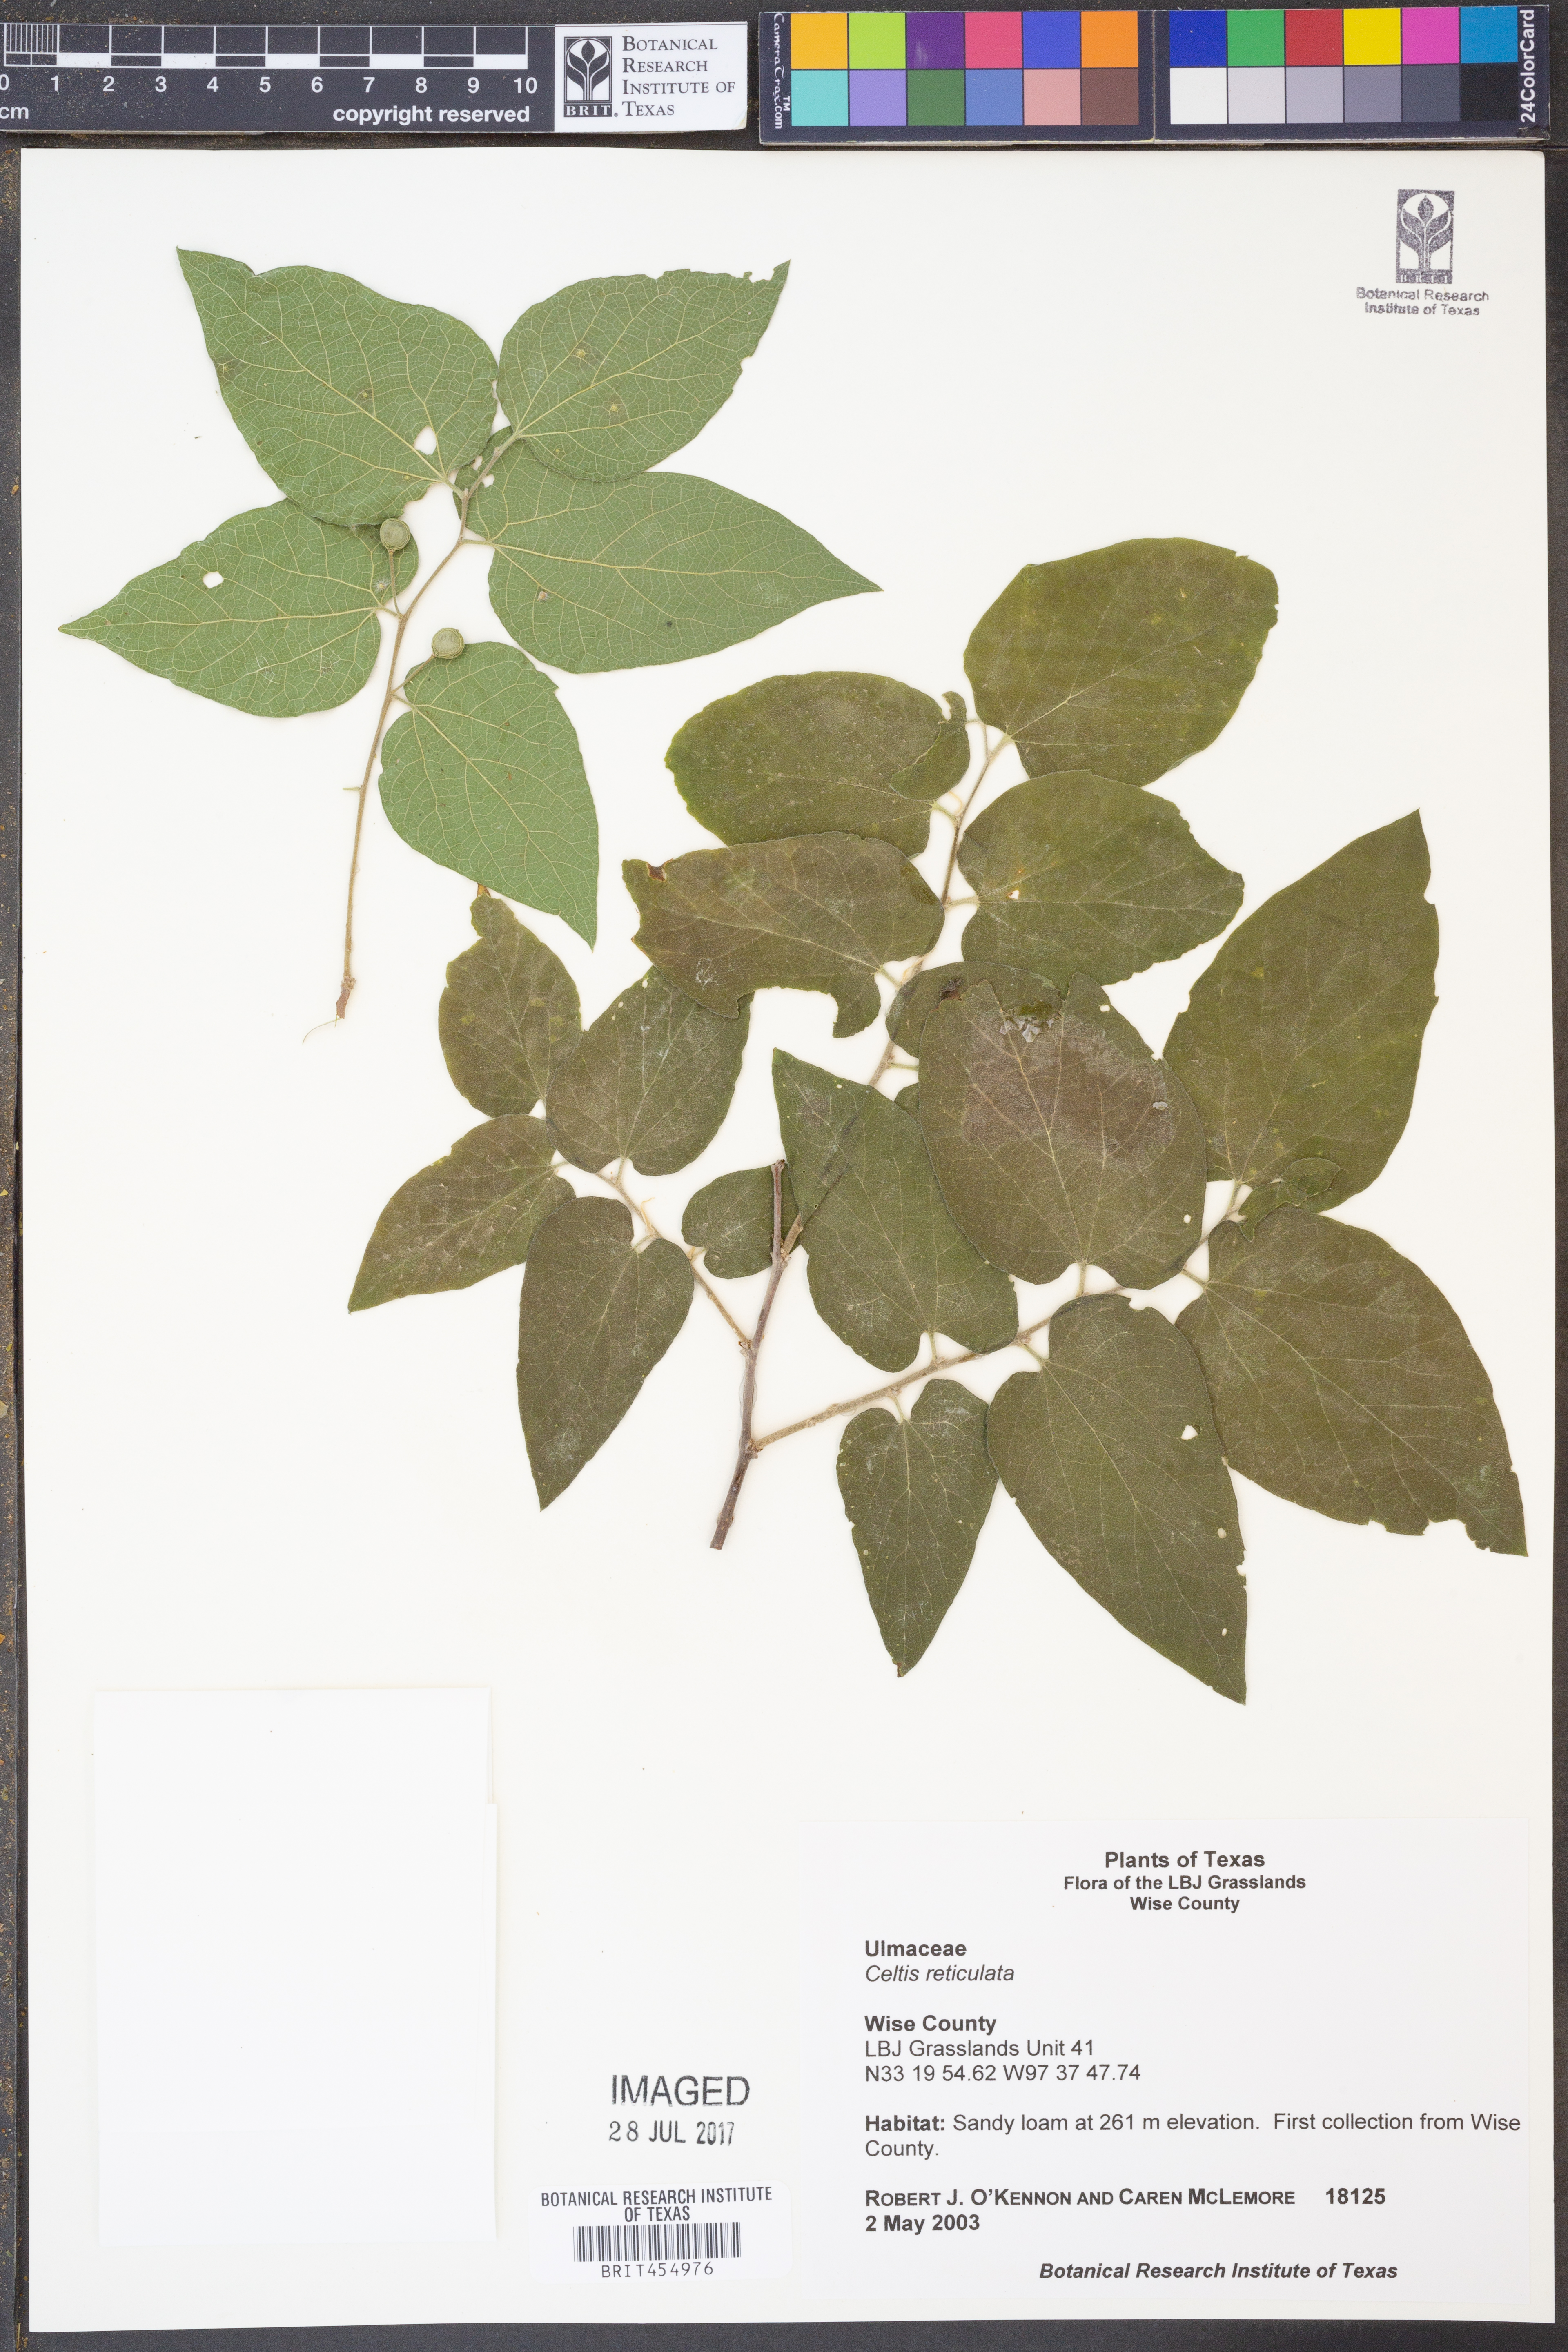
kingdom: Plantae
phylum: Tracheophyta
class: Magnoliopsida
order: Rosales
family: Cannabaceae
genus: Celtis
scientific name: Celtis reticulata
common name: Netleaf hackberry
